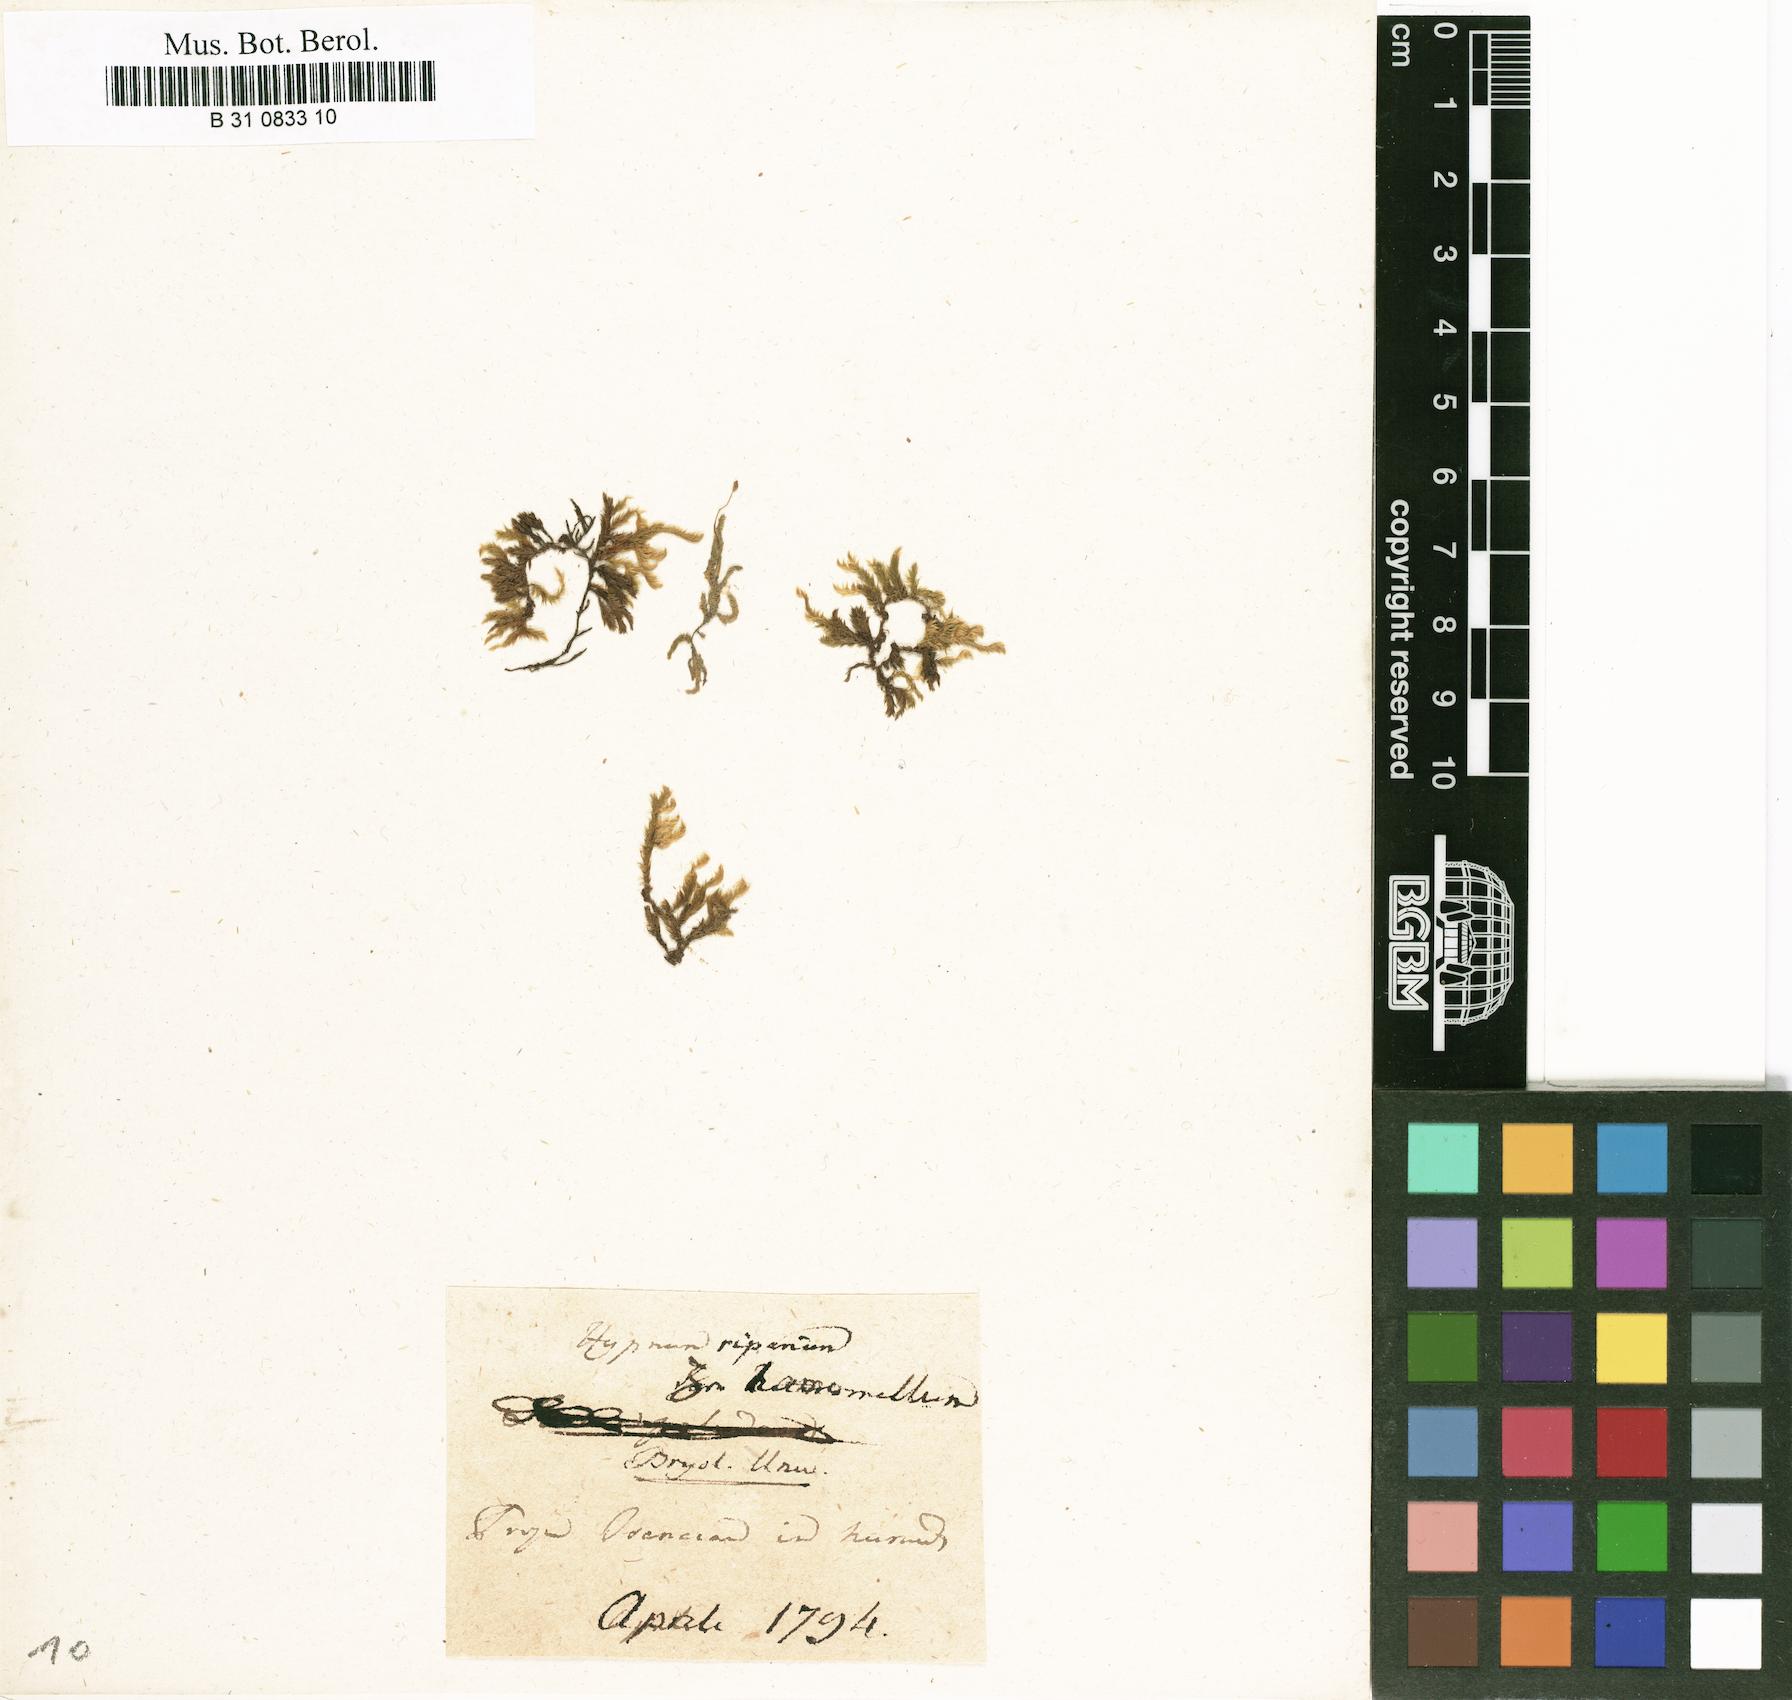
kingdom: Plantae
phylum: Bryophyta
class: Bryopsida
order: Hypnales
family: Amblystegiaceae
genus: Leptodictyum
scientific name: Leptodictyum riparium
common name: Riparian feather moss
